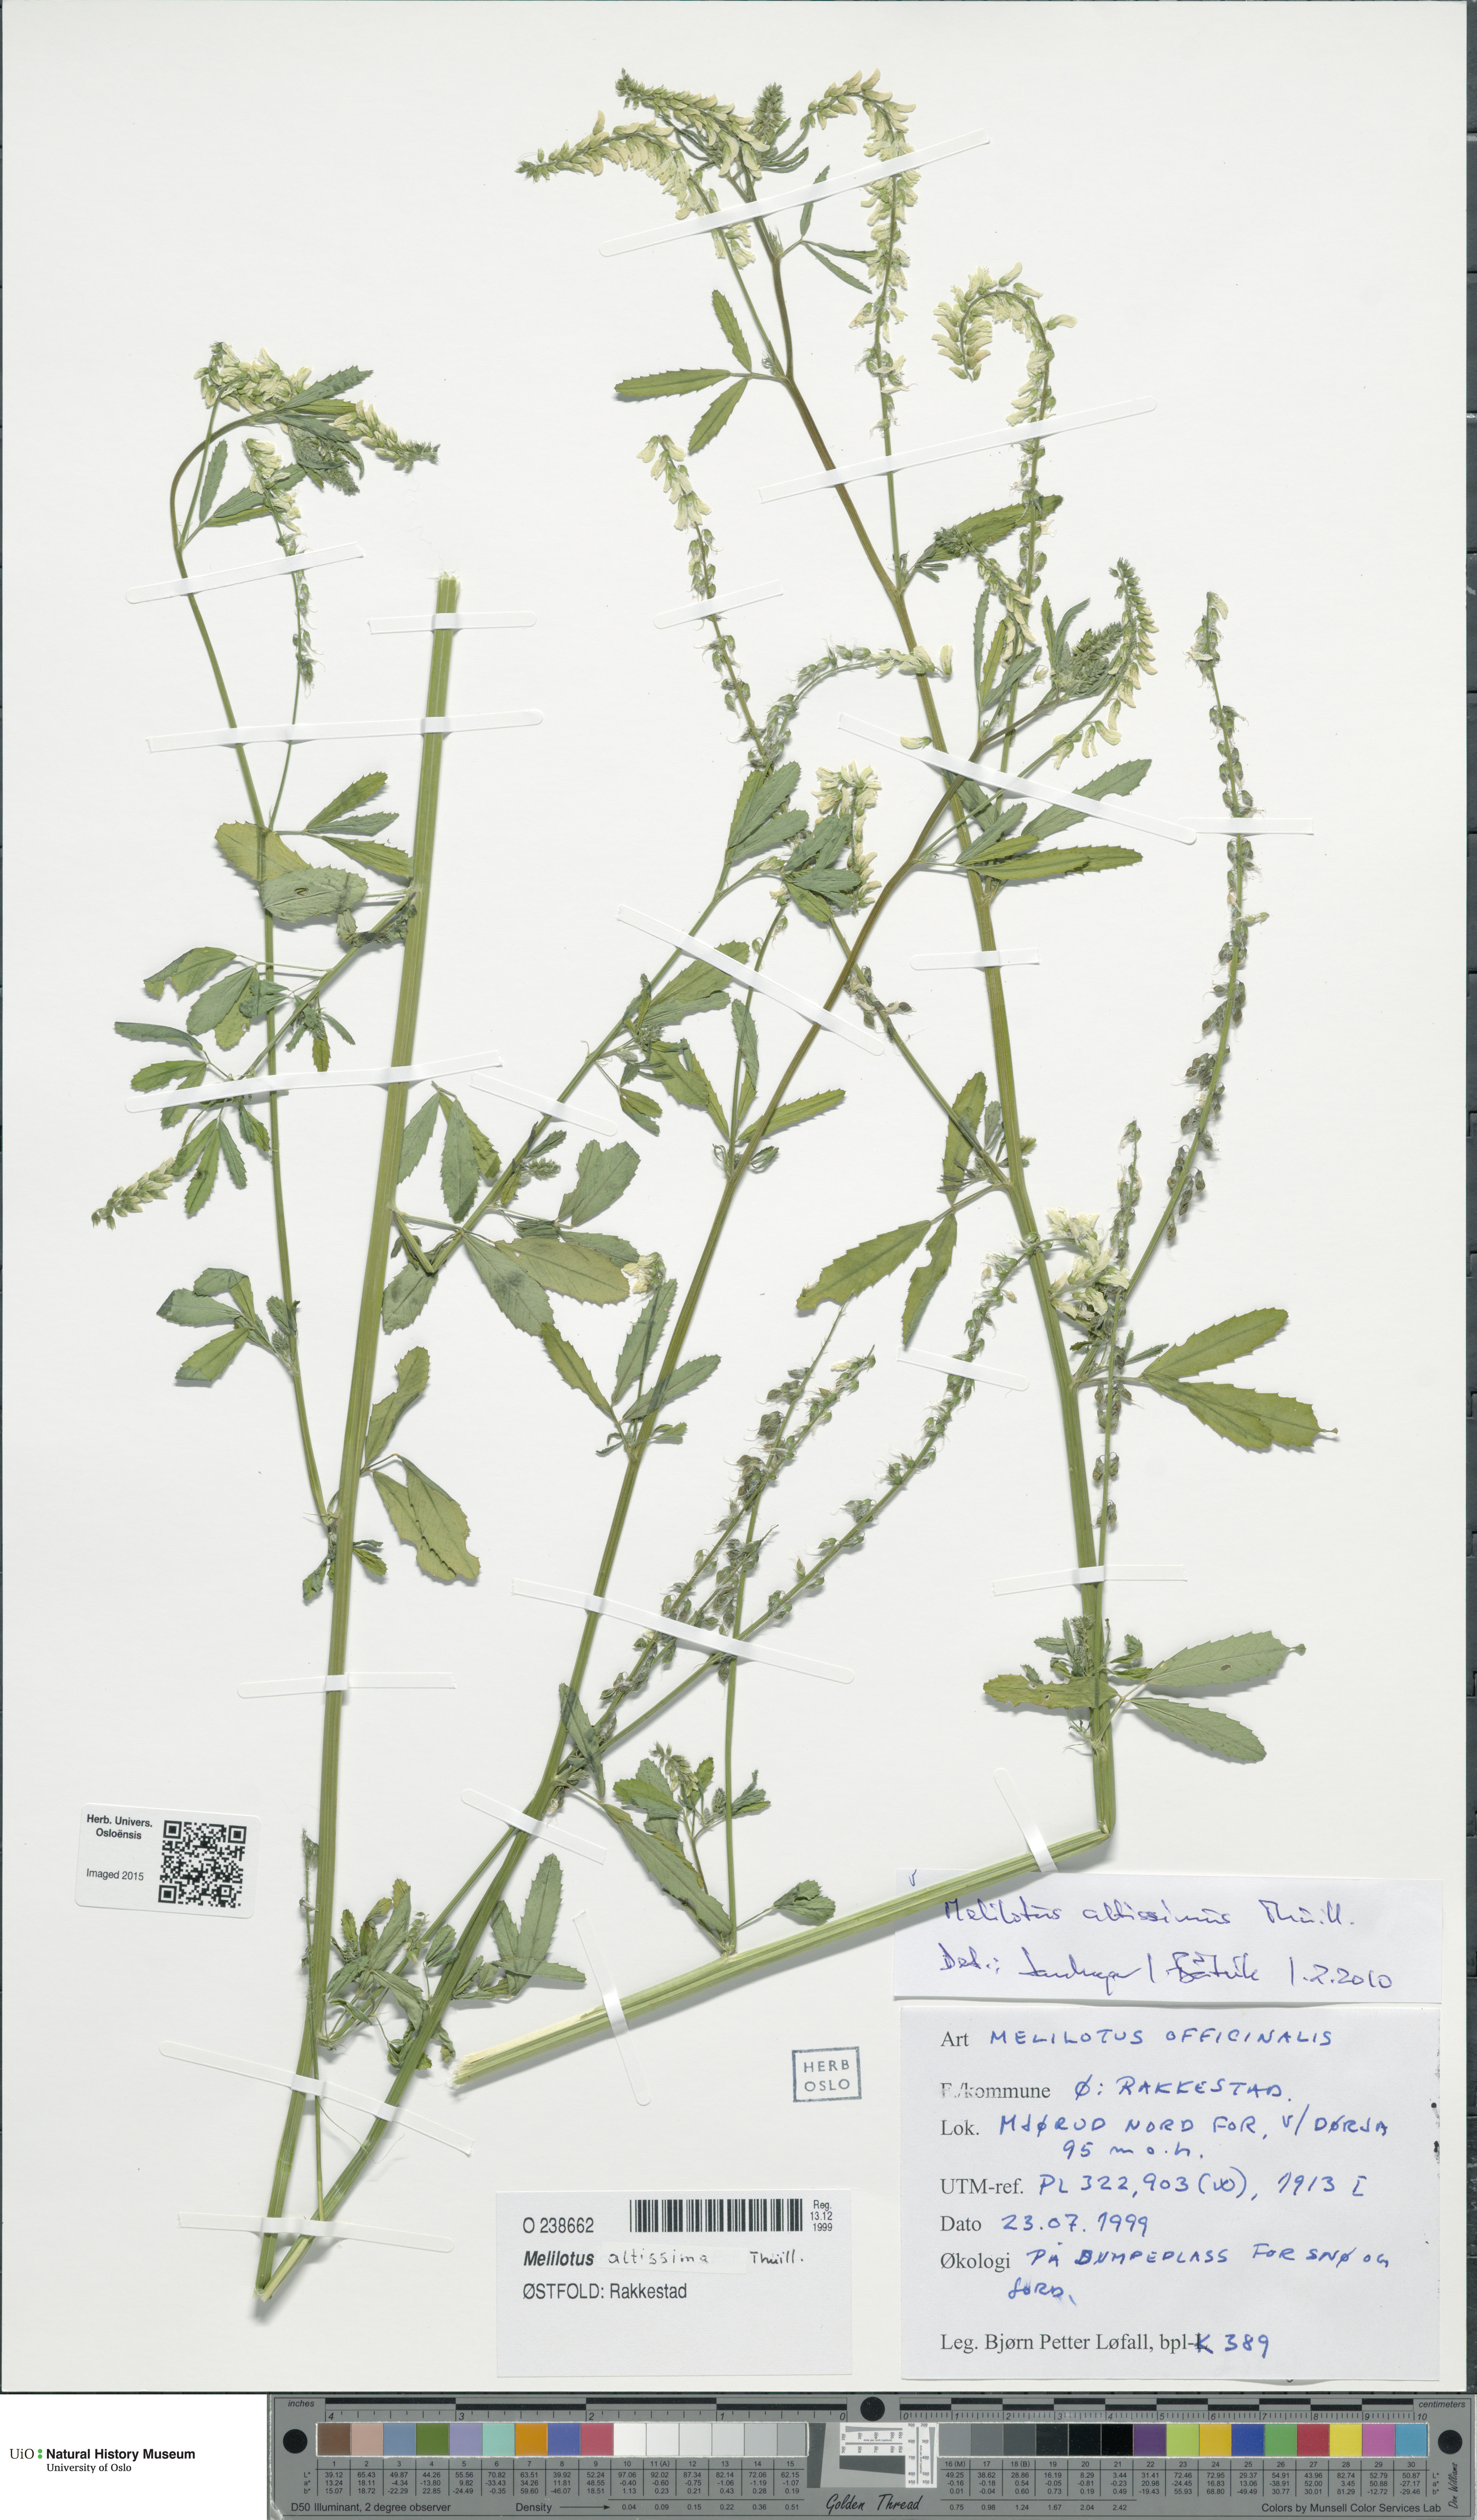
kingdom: Plantae
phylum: Tracheophyta
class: Magnoliopsida
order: Fabales
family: Fabaceae
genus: Melilotus
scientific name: Melilotus altissimus
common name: Tall melilot
